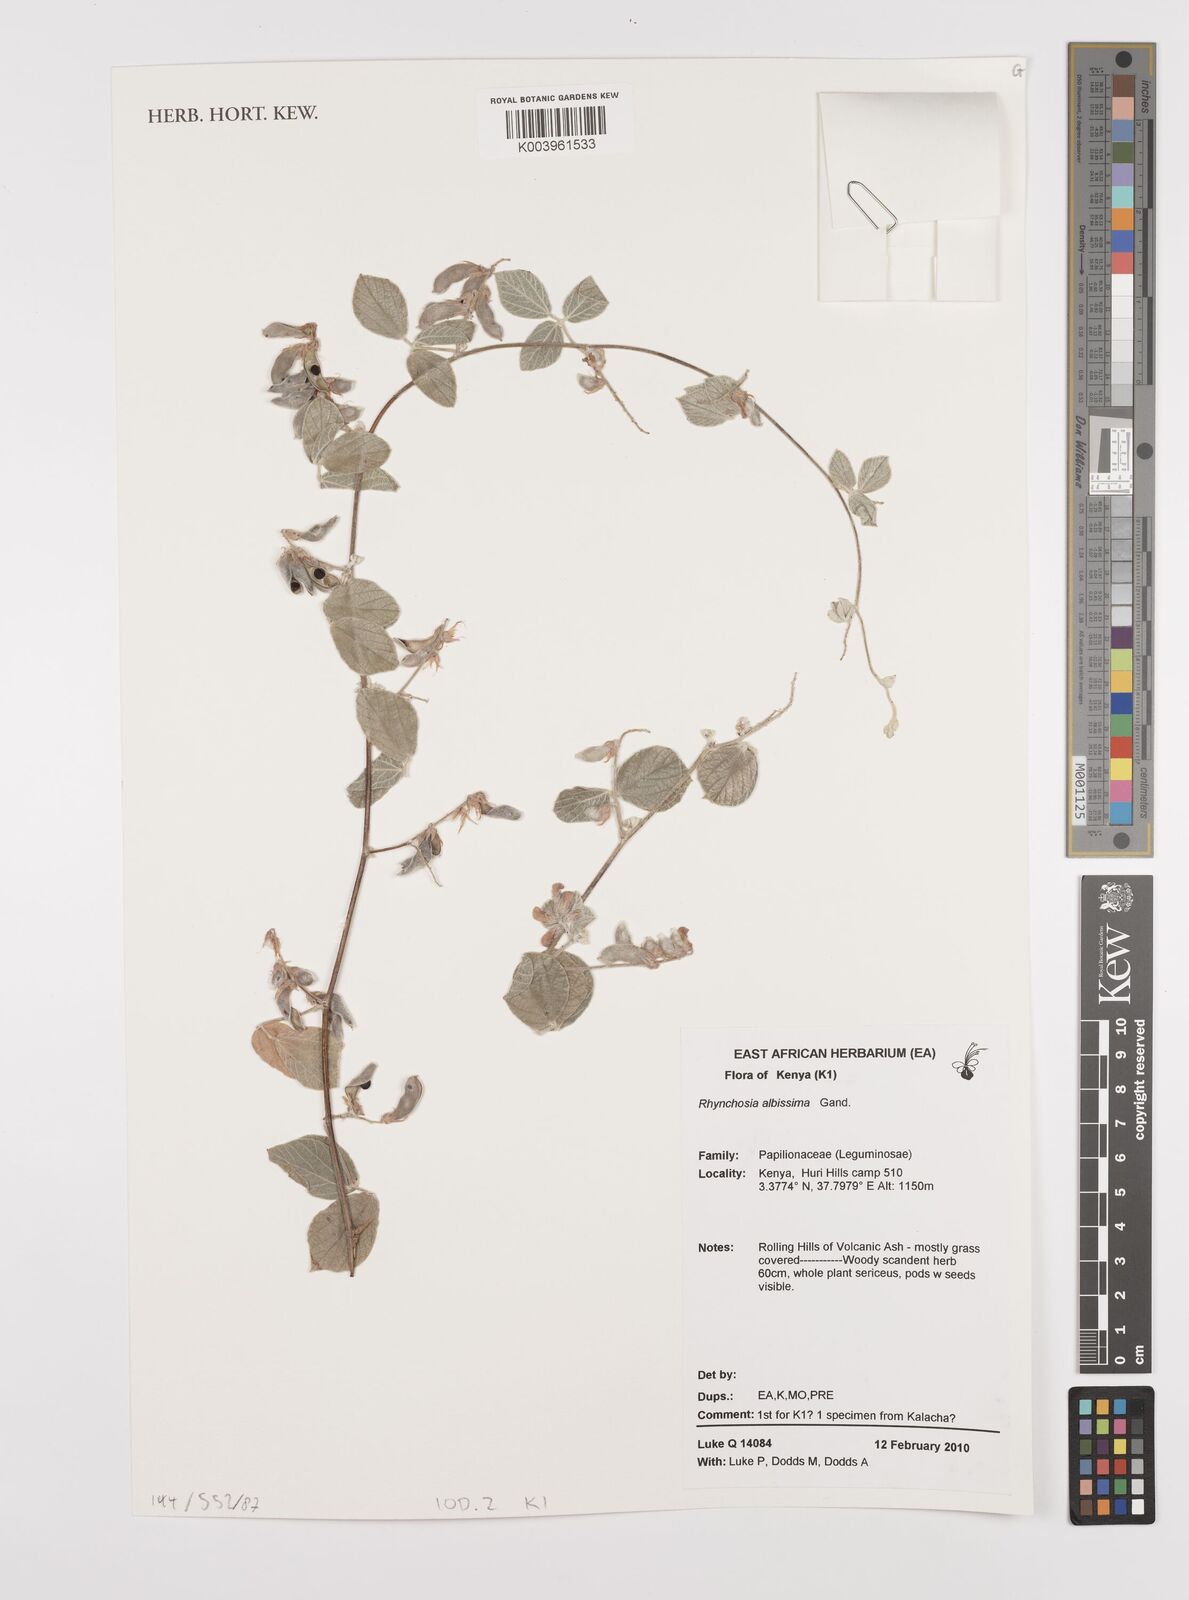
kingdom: Plantae
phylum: Tracheophyta
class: Magnoliopsida
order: Fabales
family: Fabaceae
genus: Rhynchosia
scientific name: Rhynchosia albissima
